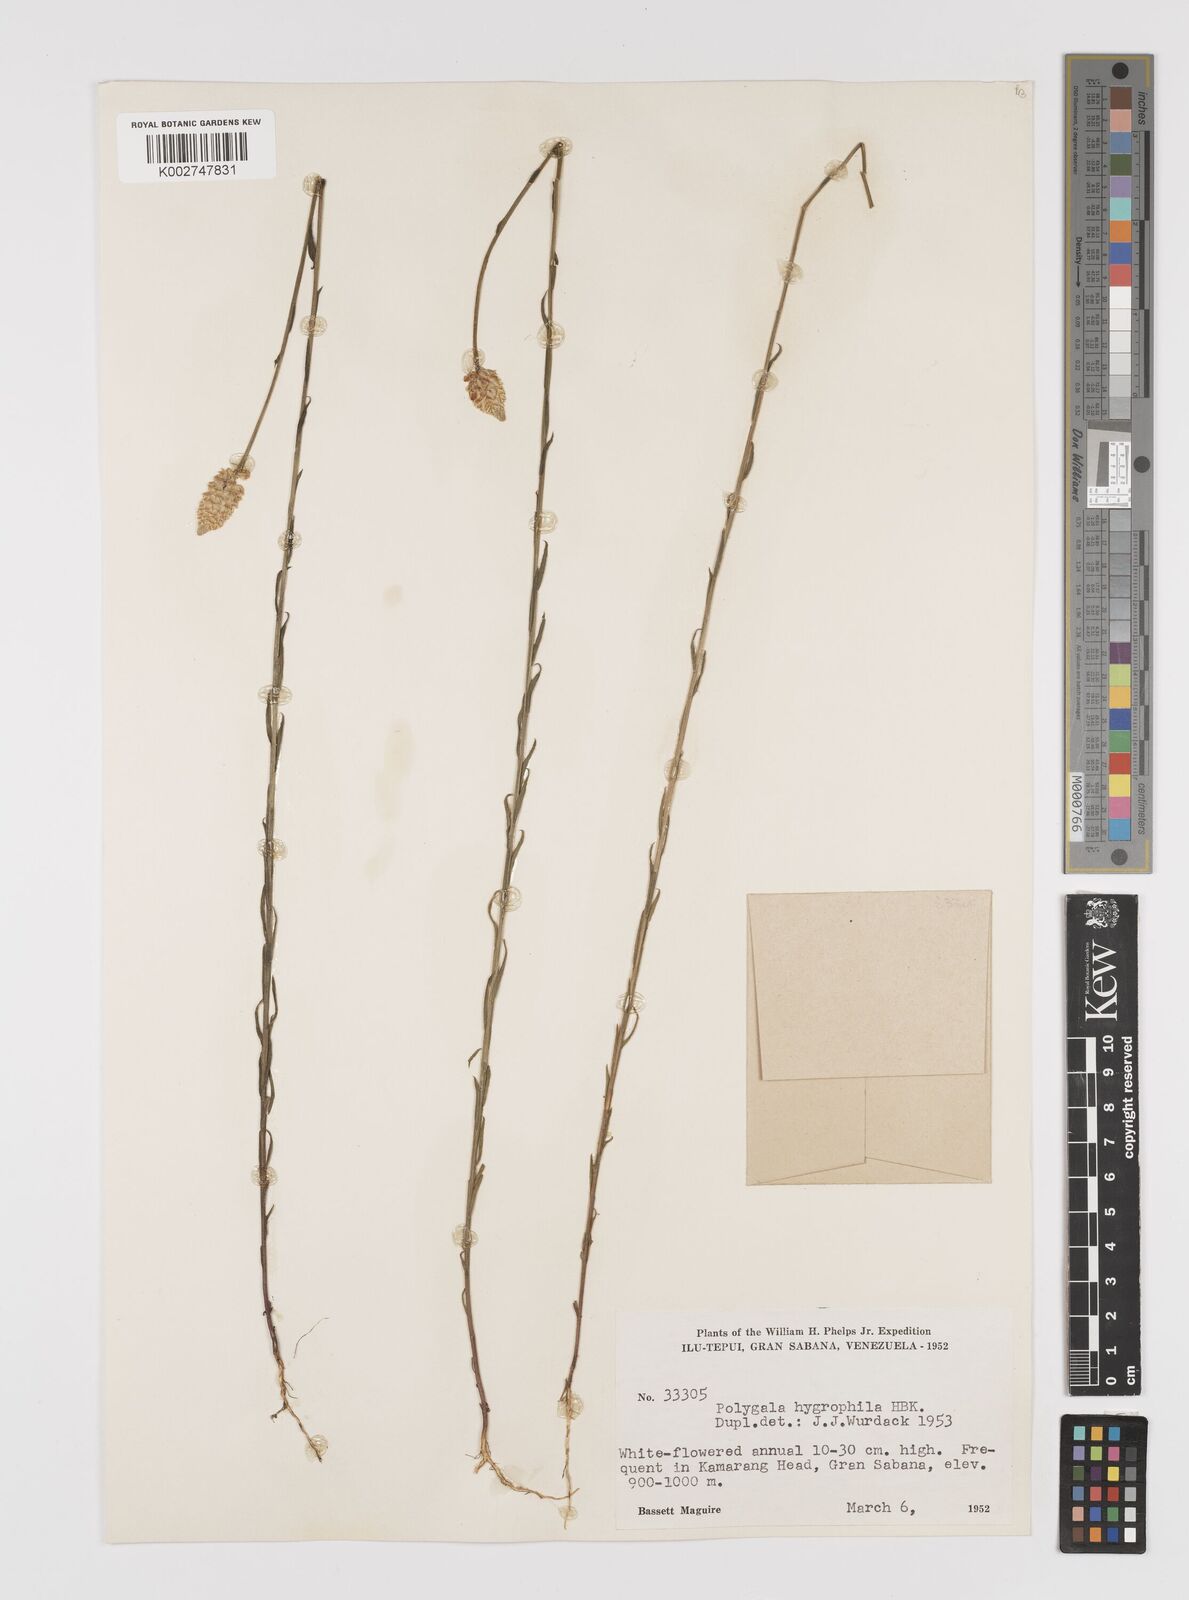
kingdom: Plantae
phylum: Tracheophyta
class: Magnoliopsida
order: Fabales
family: Polygalaceae
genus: Polygala
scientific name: Polygala hygrophila
